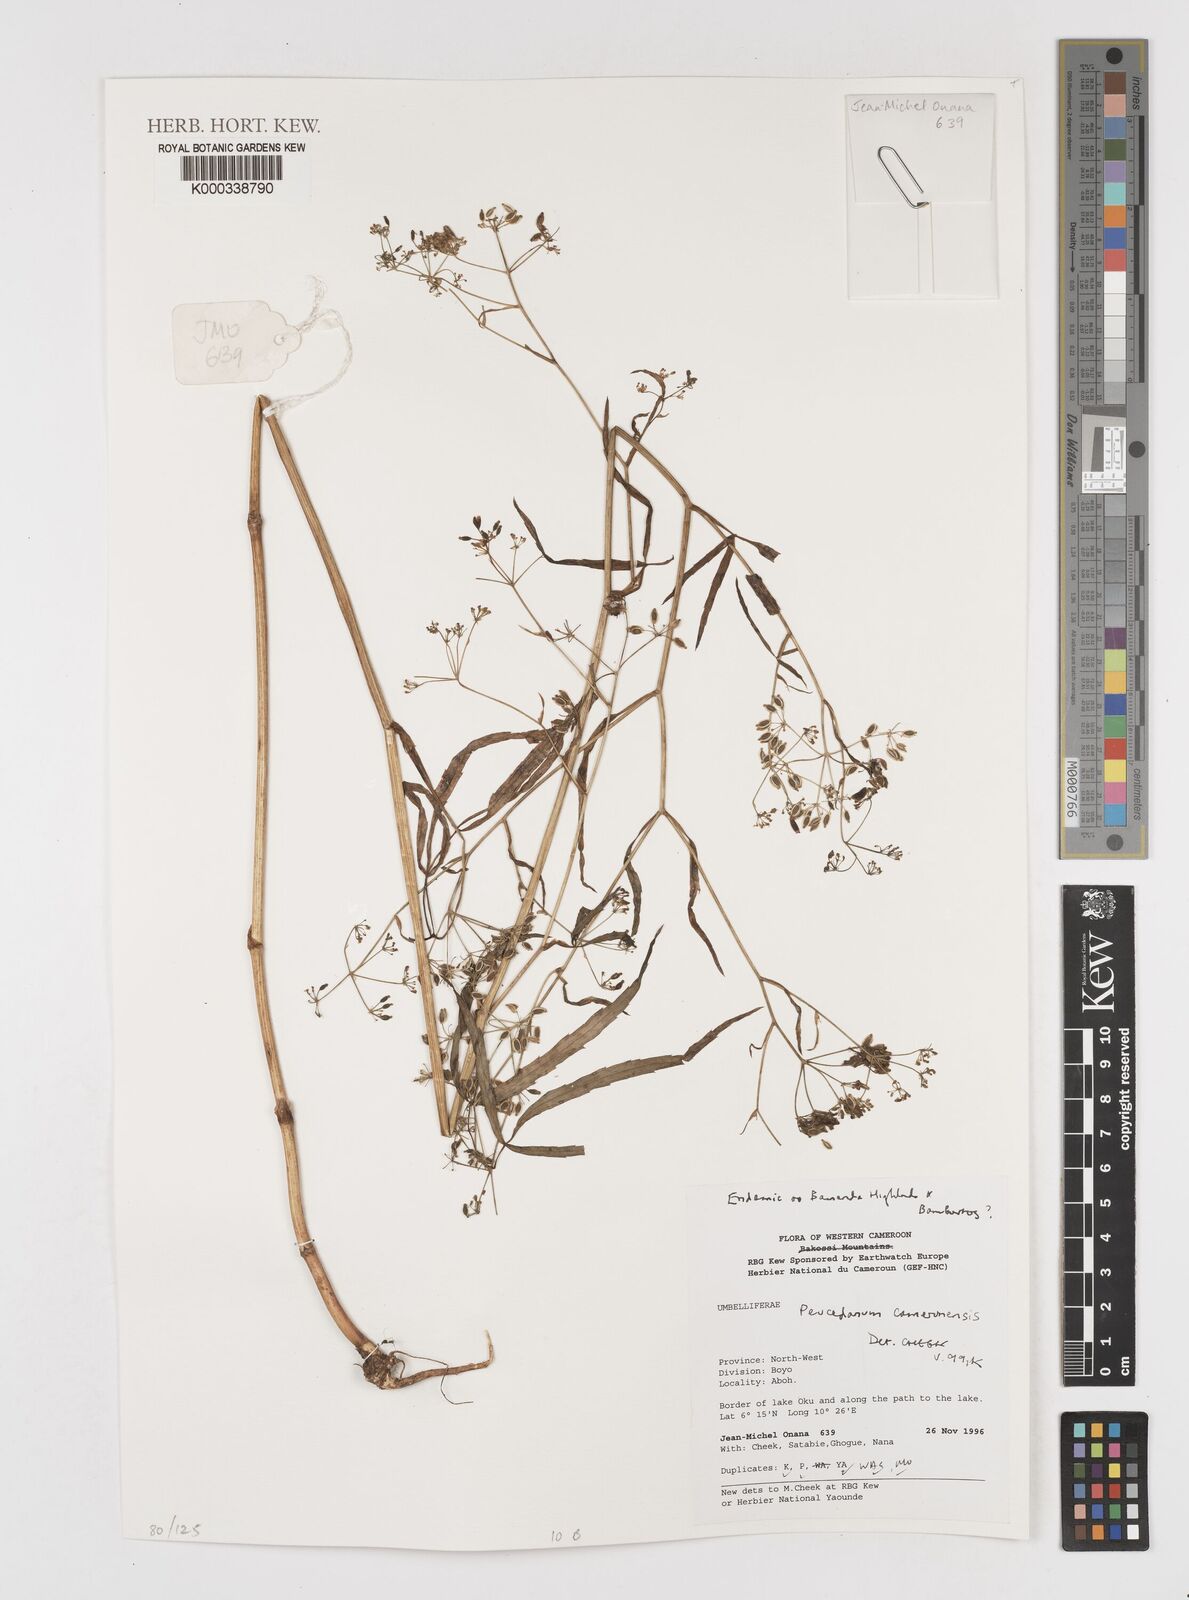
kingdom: Plantae
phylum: Tracheophyta
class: Magnoliopsida
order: Apiales
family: Apiaceae
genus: Lefebvrea
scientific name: Lefebvrea
